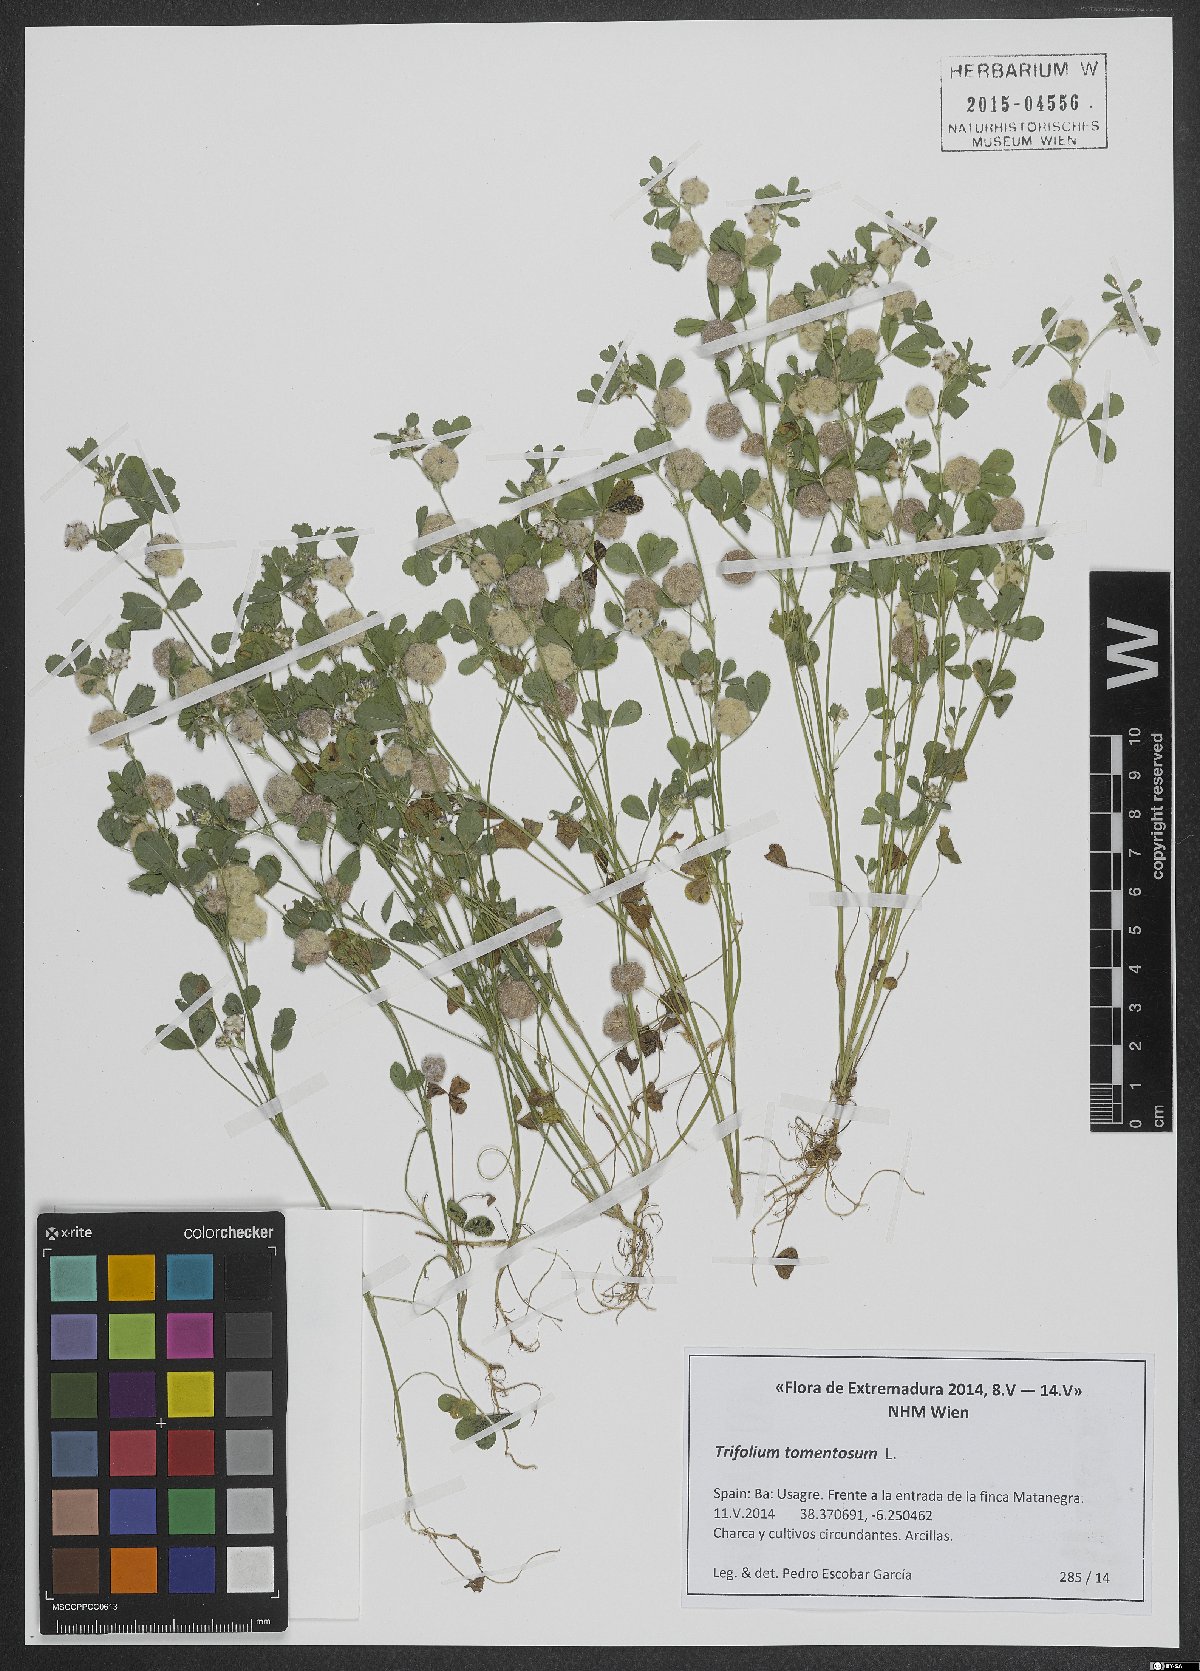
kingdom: Plantae
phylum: Tracheophyta
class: Magnoliopsida
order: Fabales
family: Fabaceae
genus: Trifolium
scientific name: Trifolium tomentosum
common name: Woolly clover
